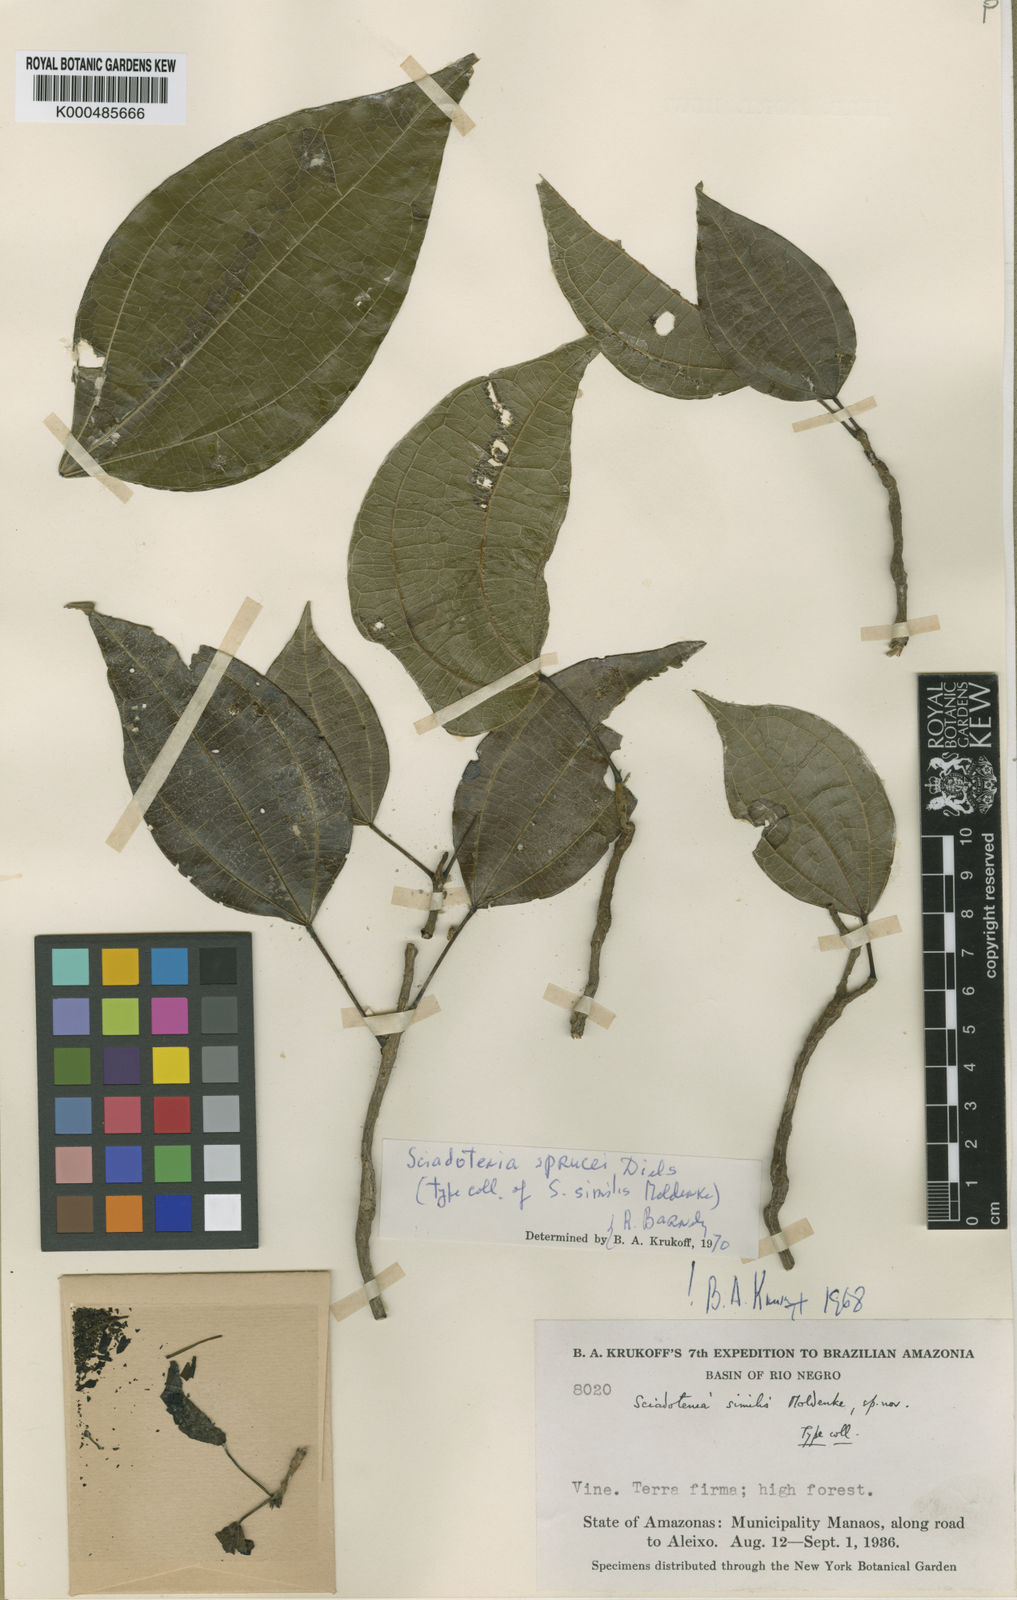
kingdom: Plantae
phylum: Tracheophyta
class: Magnoliopsida
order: Ranunculales
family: Menispermaceae
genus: Sciadotenia
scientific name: Sciadotenia sprucei
